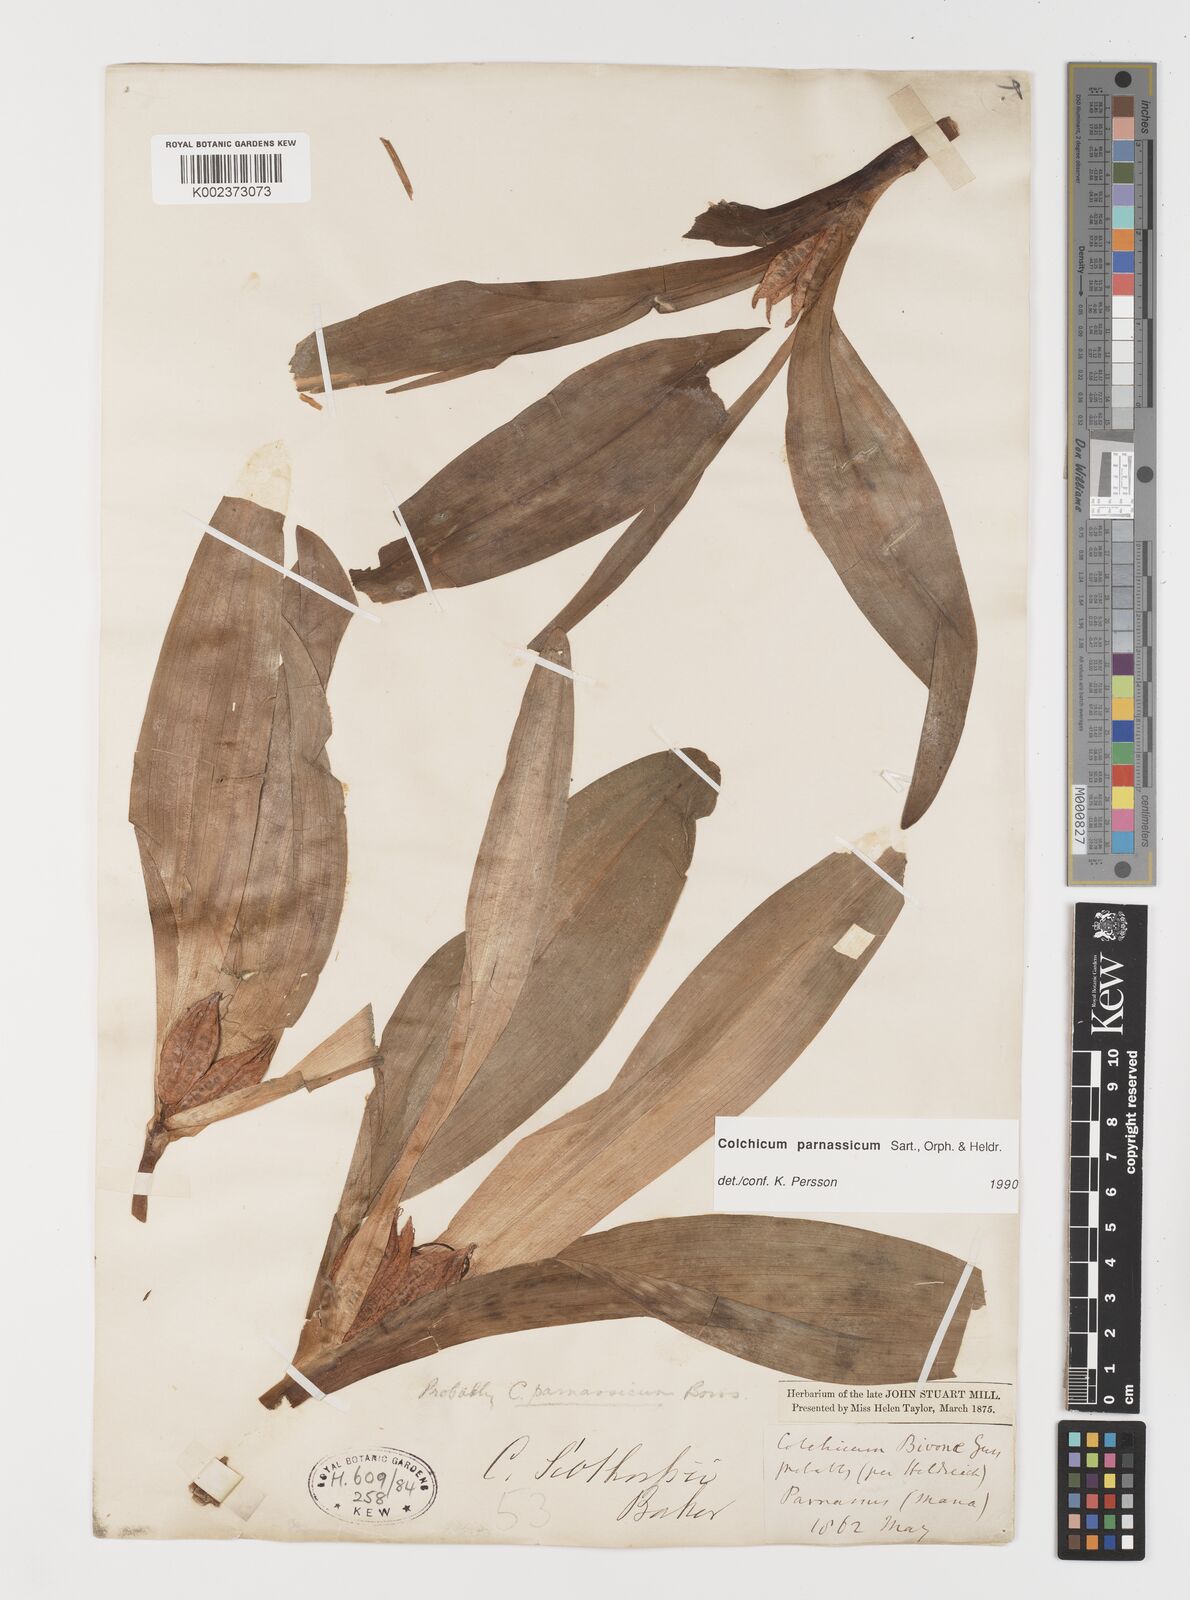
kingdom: Plantae
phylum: Tracheophyta
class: Liliopsida
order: Liliales
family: Colchicaceae
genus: Colchicum
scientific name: Colchicum parnassicum
